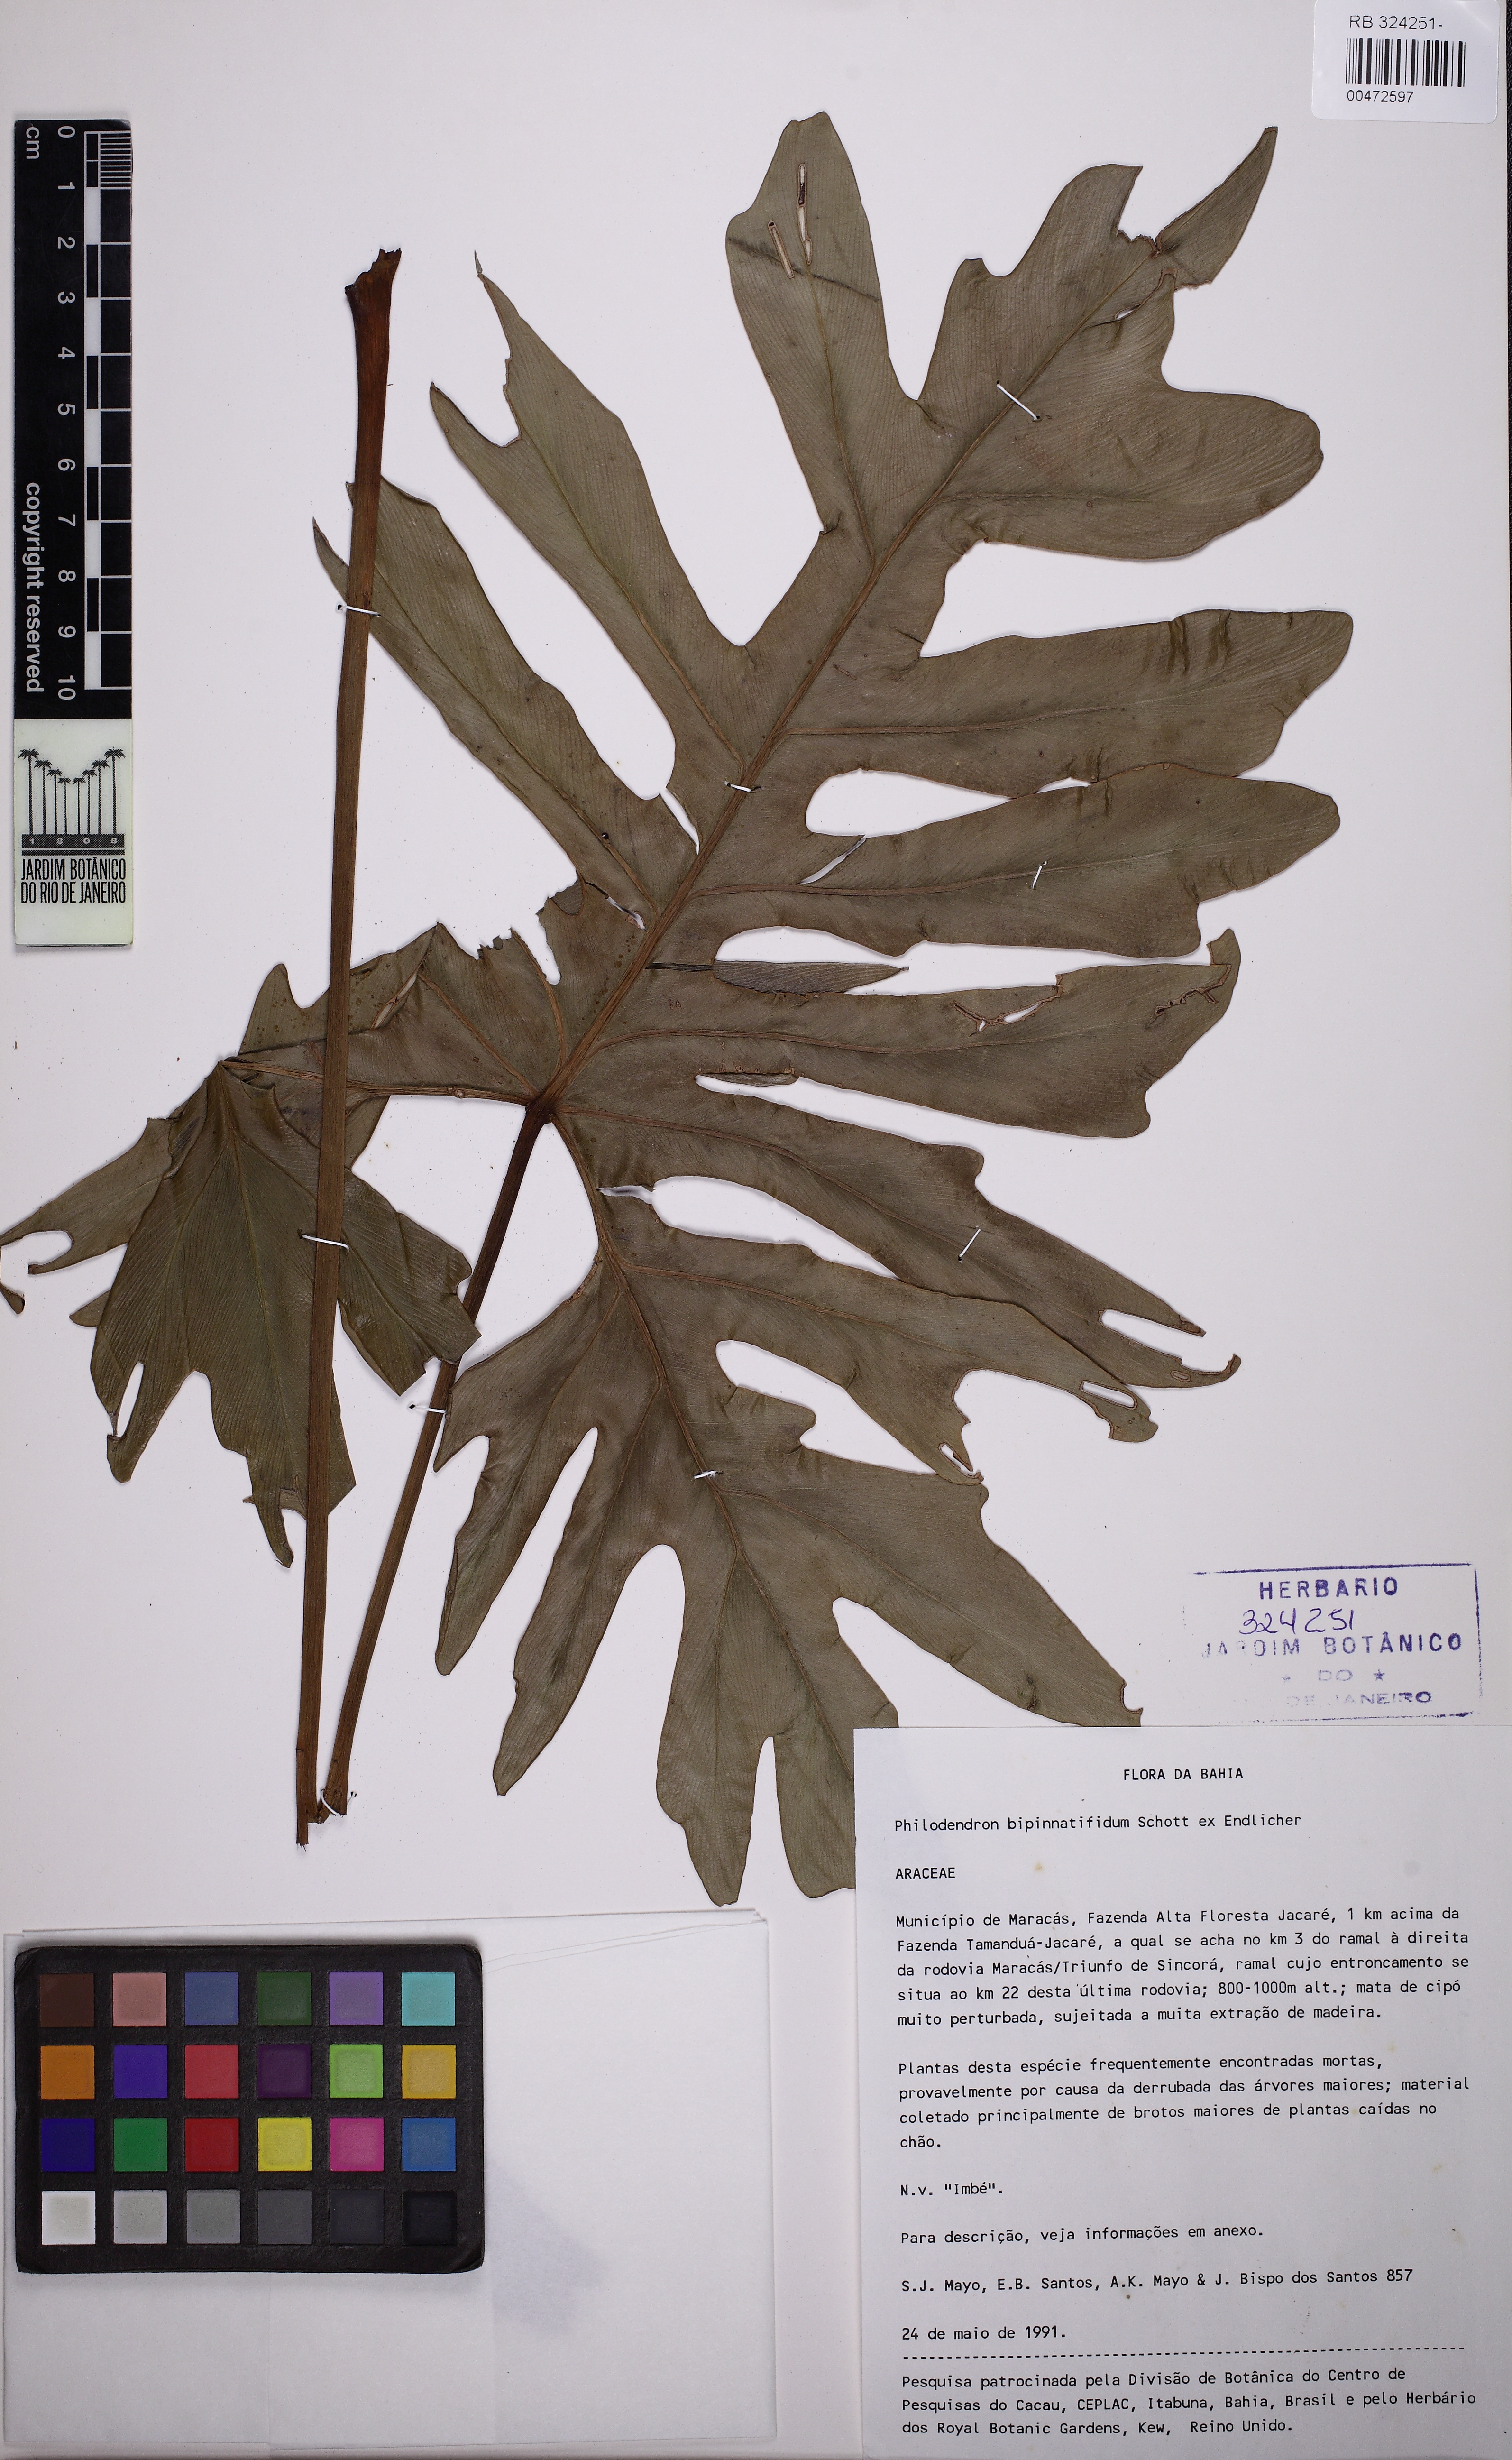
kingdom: Plantae
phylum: Tracheophyta
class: Liliopsida
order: Alismatales
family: Araceae
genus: Thaumatophyllum
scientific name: Thaumatophyllum bipinnatifidum
